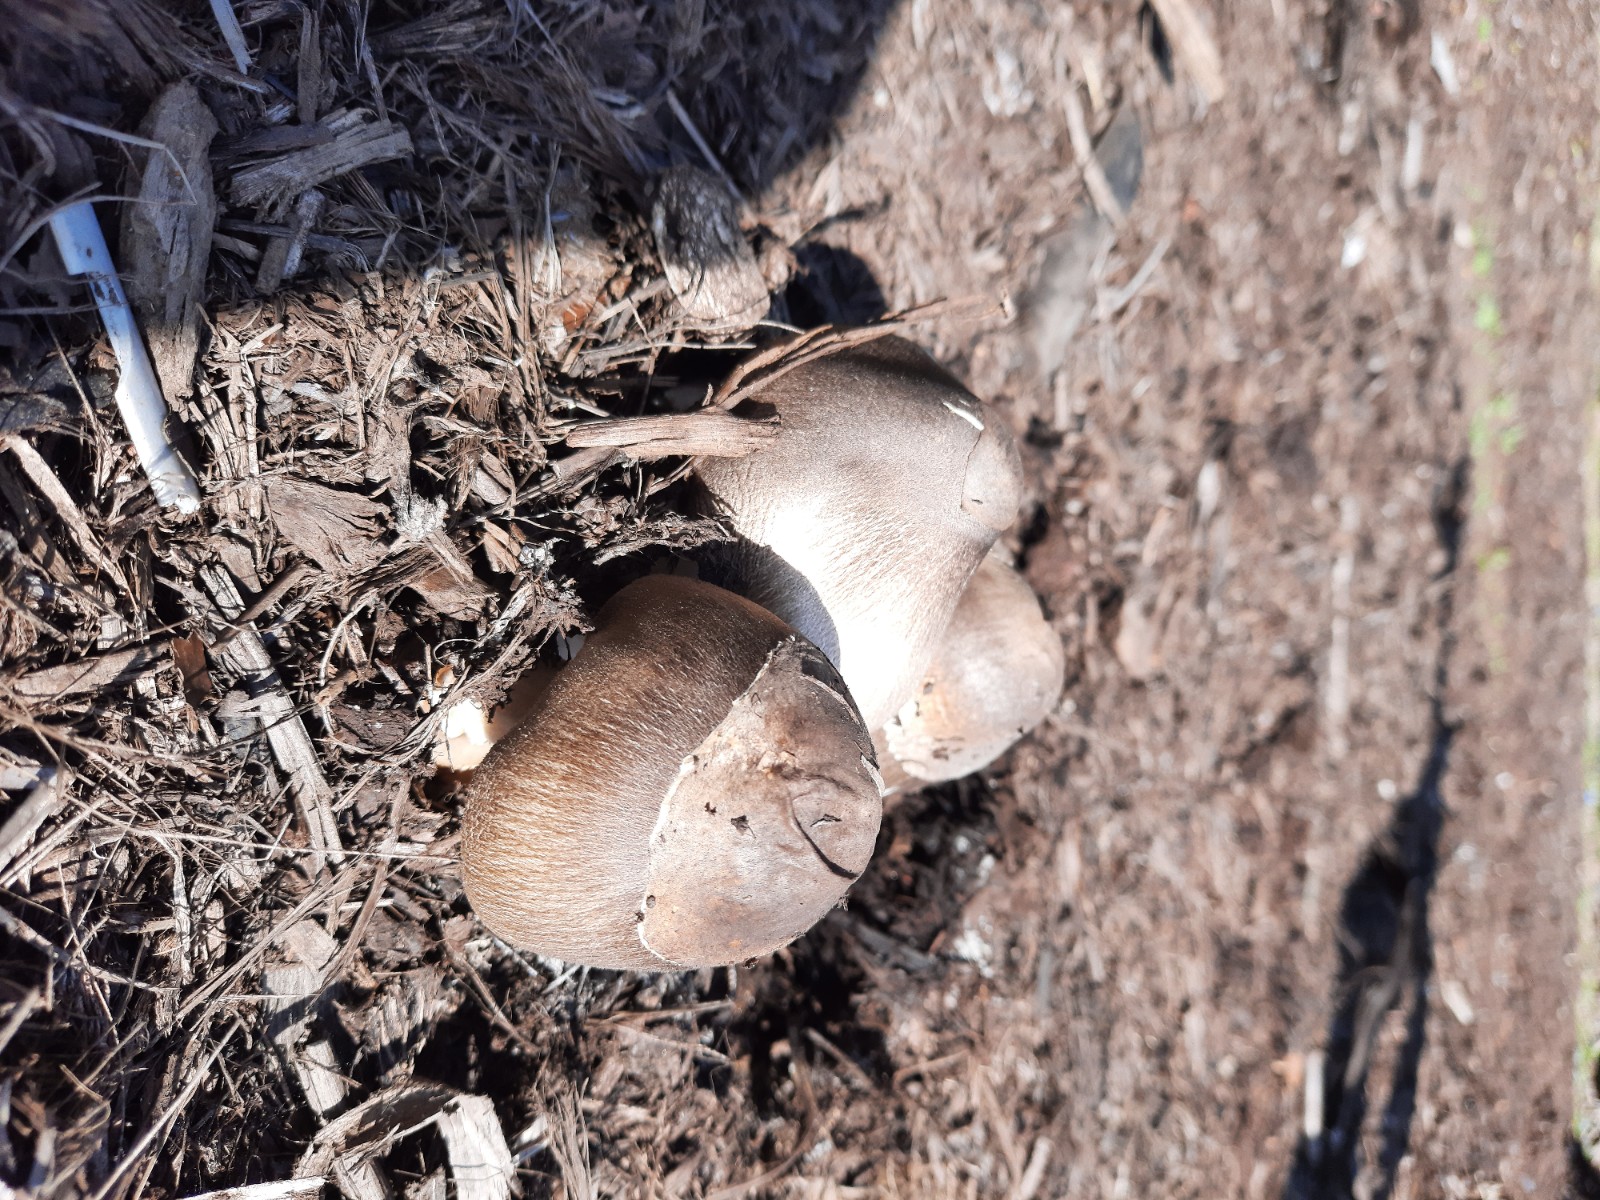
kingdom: Fungi
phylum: Basidiomycota
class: Agaricomycetes
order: Agaricales
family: Pluteaceae
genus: Volvariella
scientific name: Volvariella volvacea
